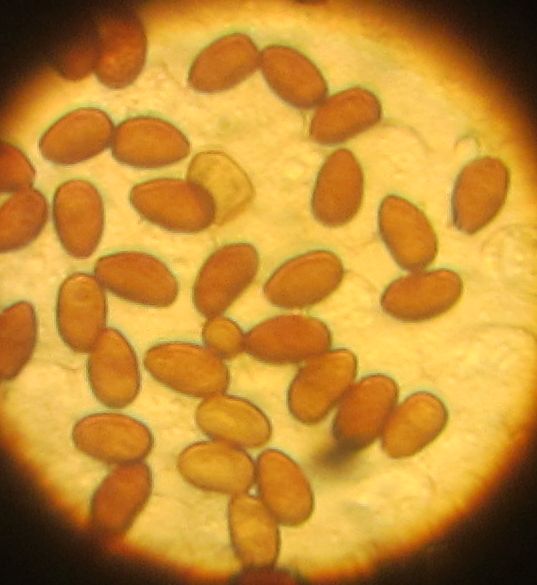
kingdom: Fungi
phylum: Basidiomycota
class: Agaricomycetes
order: Agaricales
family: Psathyrellaceae
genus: Psathyrella
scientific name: Psathyrella spadiceogrisea
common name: gråbrun mørkhat
